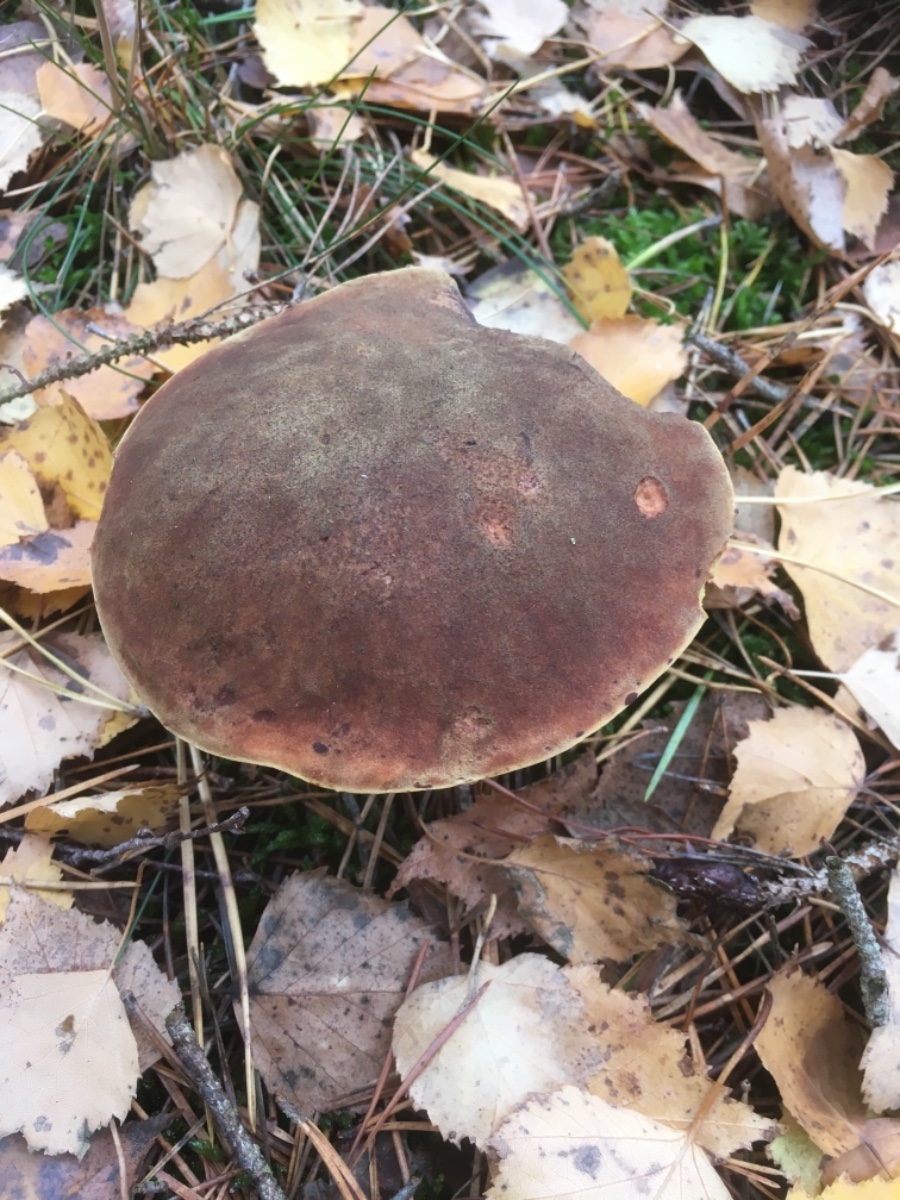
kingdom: Fungi
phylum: Basidiomycota
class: Agaricomycetes
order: Boletales
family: Boletaceae
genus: Xerocomus
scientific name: Xerocomus ferrugineus
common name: vaskeskinds-rørhat
